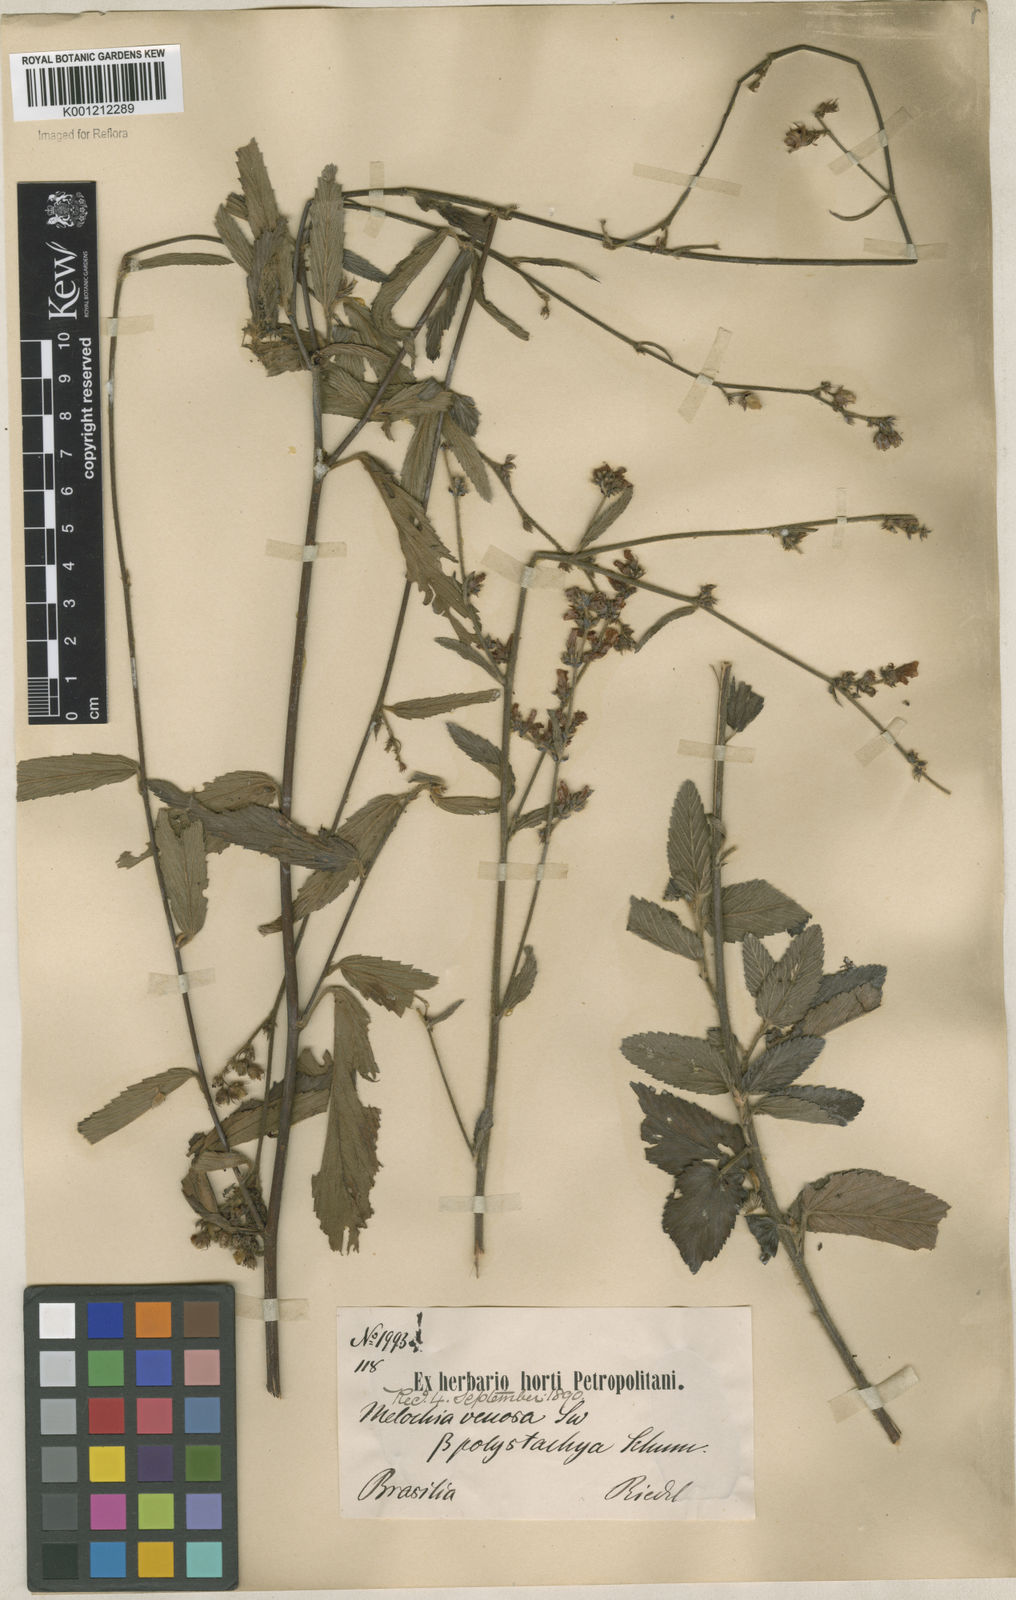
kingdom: Plantae
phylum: Tracheophyta
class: Magnoliopsida
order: Malvales
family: Malvaceae
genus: Melochia
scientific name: Melochia pilosa
